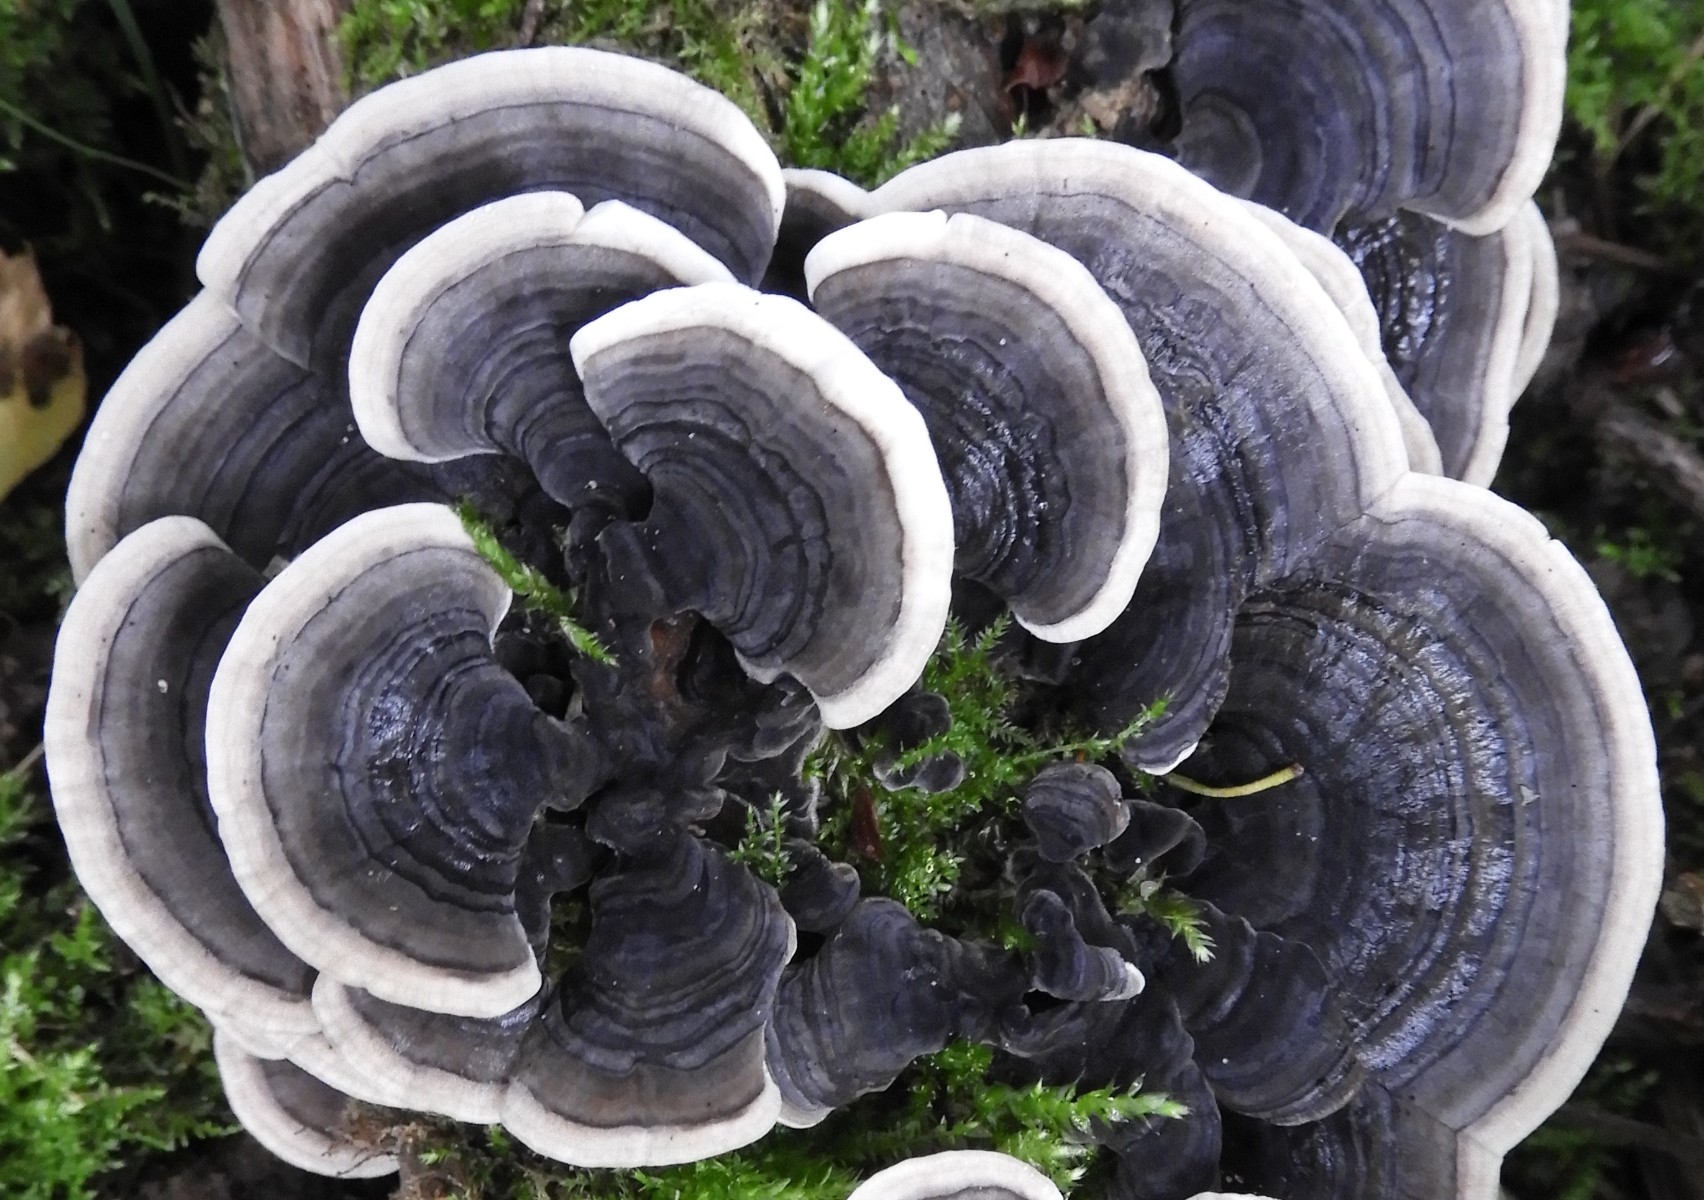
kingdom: Fungi
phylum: Basidiomycota
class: Agaricomycetes
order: Polyporales
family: Polyporaceae
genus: Trametes
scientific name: Trametes versicolor
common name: broget læderporesvamp
